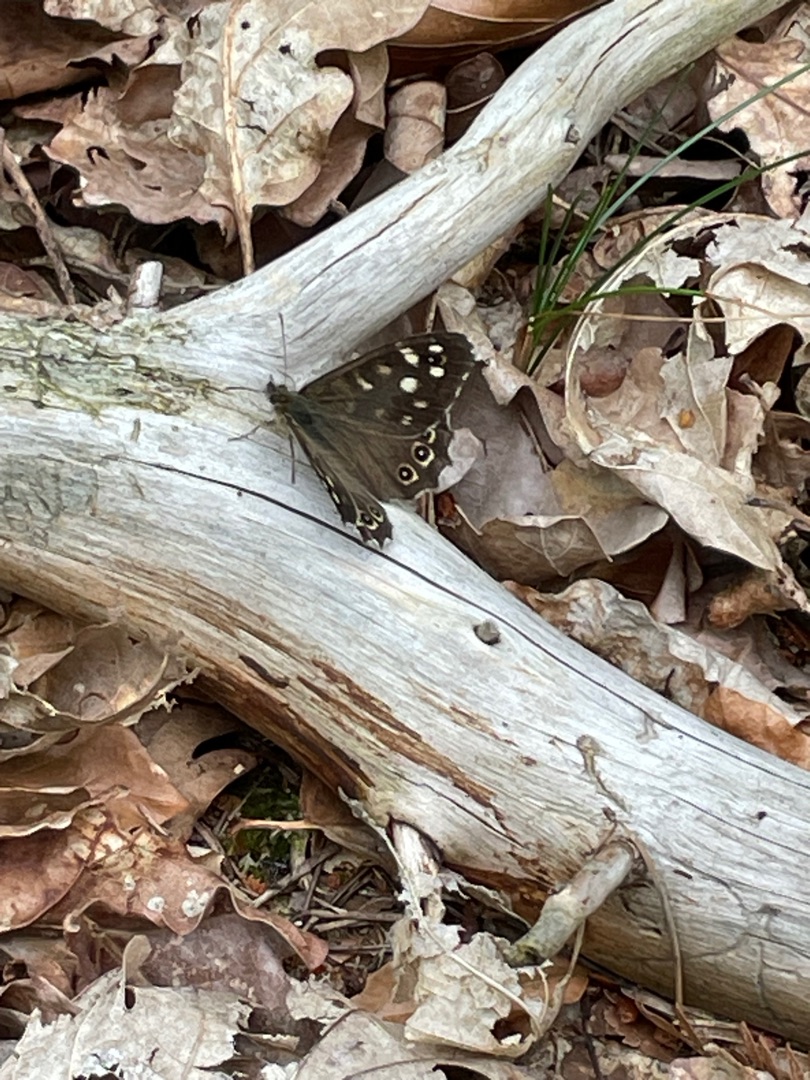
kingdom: Animalia
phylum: Arthropoda
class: Insecta
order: Lepidoptera
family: Nymphalidae
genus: Pararge
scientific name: Pararge aegeria
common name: Skovrandøje
